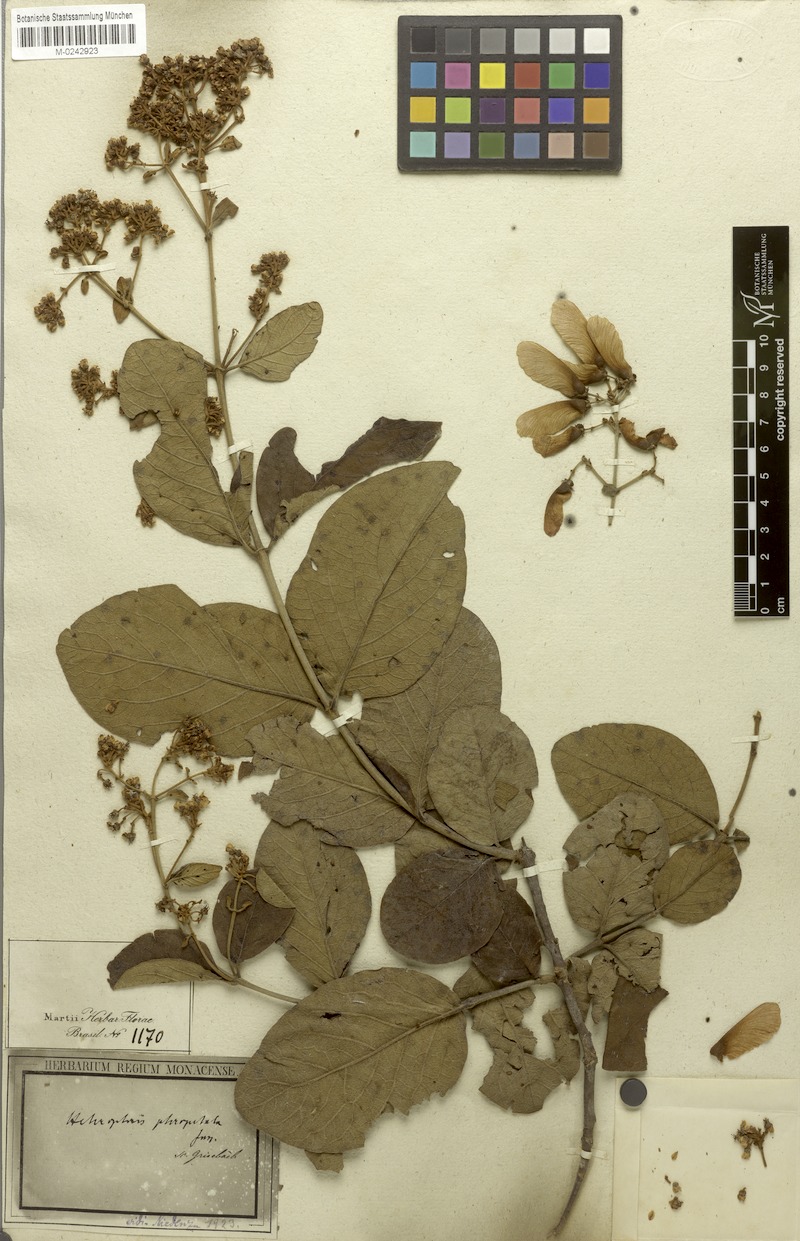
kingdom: Plantae
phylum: Tracheophyta
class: Magnoliopsida
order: Malpighiales
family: Malpighiaceae
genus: Heteropterys
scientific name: Heteropterys pteropetala
